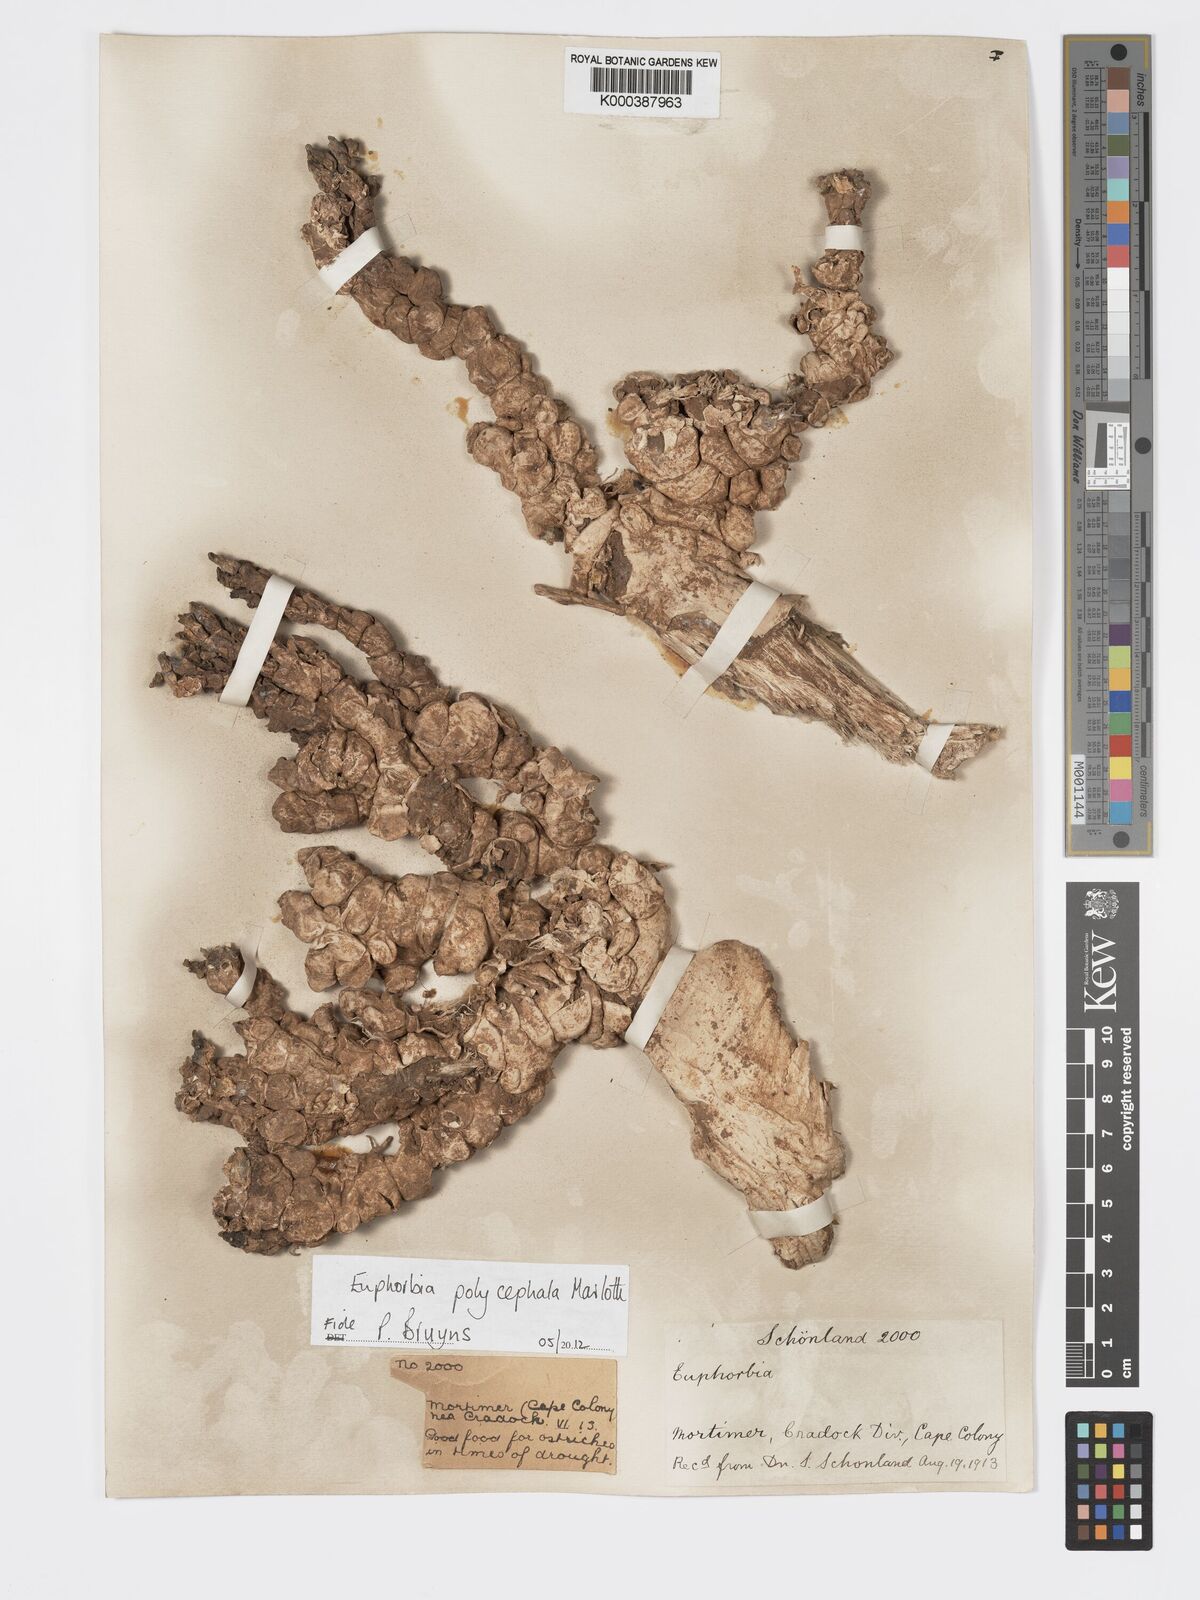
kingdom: Plantae
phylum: Tracheophyta
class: Magnoliopsida
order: Malpighiales
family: Euphorbiaceae
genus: Euphorbia
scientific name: Euphorbia polycephala
